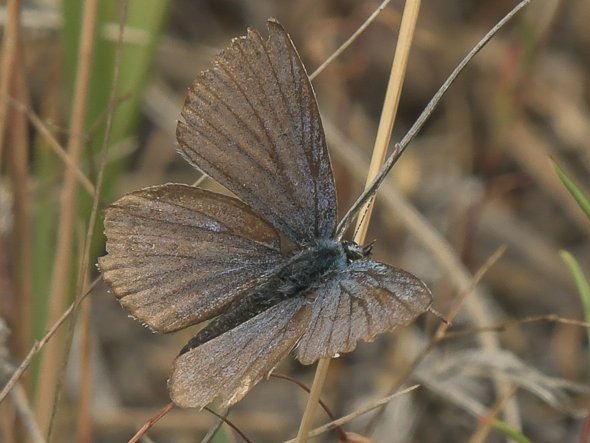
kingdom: Animalia
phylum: Arthropoda
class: Insecta
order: Lepidoptera
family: Lycaenidae
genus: Lycaeides
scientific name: Lycaeides idas
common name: Northern Blue
